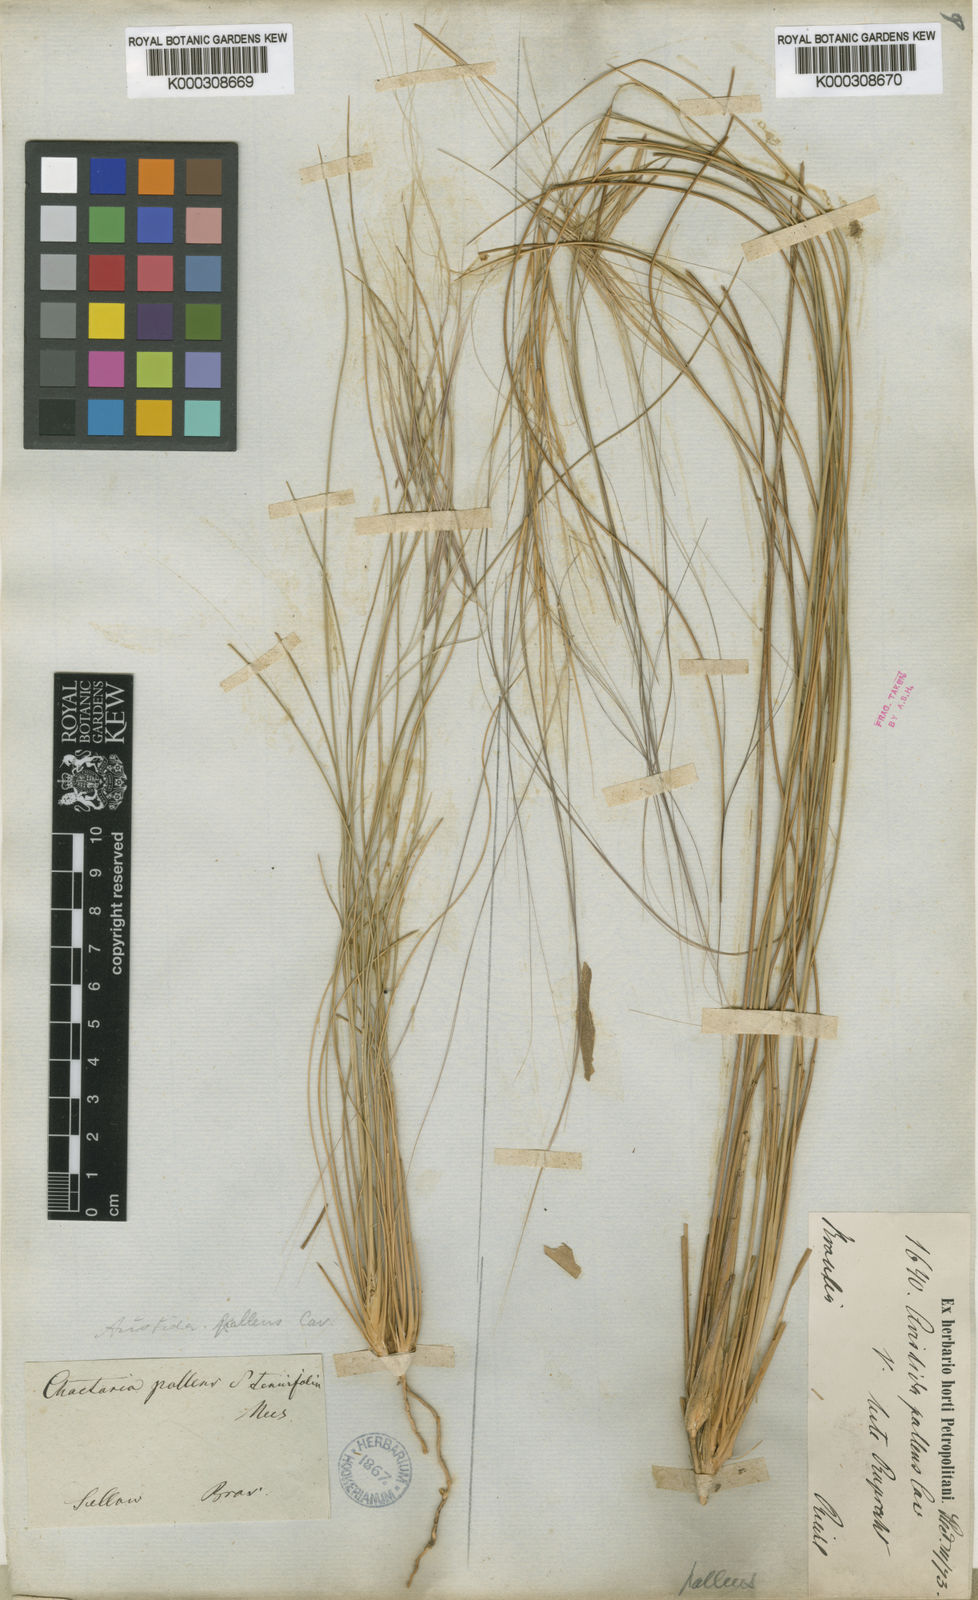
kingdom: Plantae
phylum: Tracheophyta
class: Liliopsida
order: Poales
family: Poaceae
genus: Aristida
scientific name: Aristida venustula
